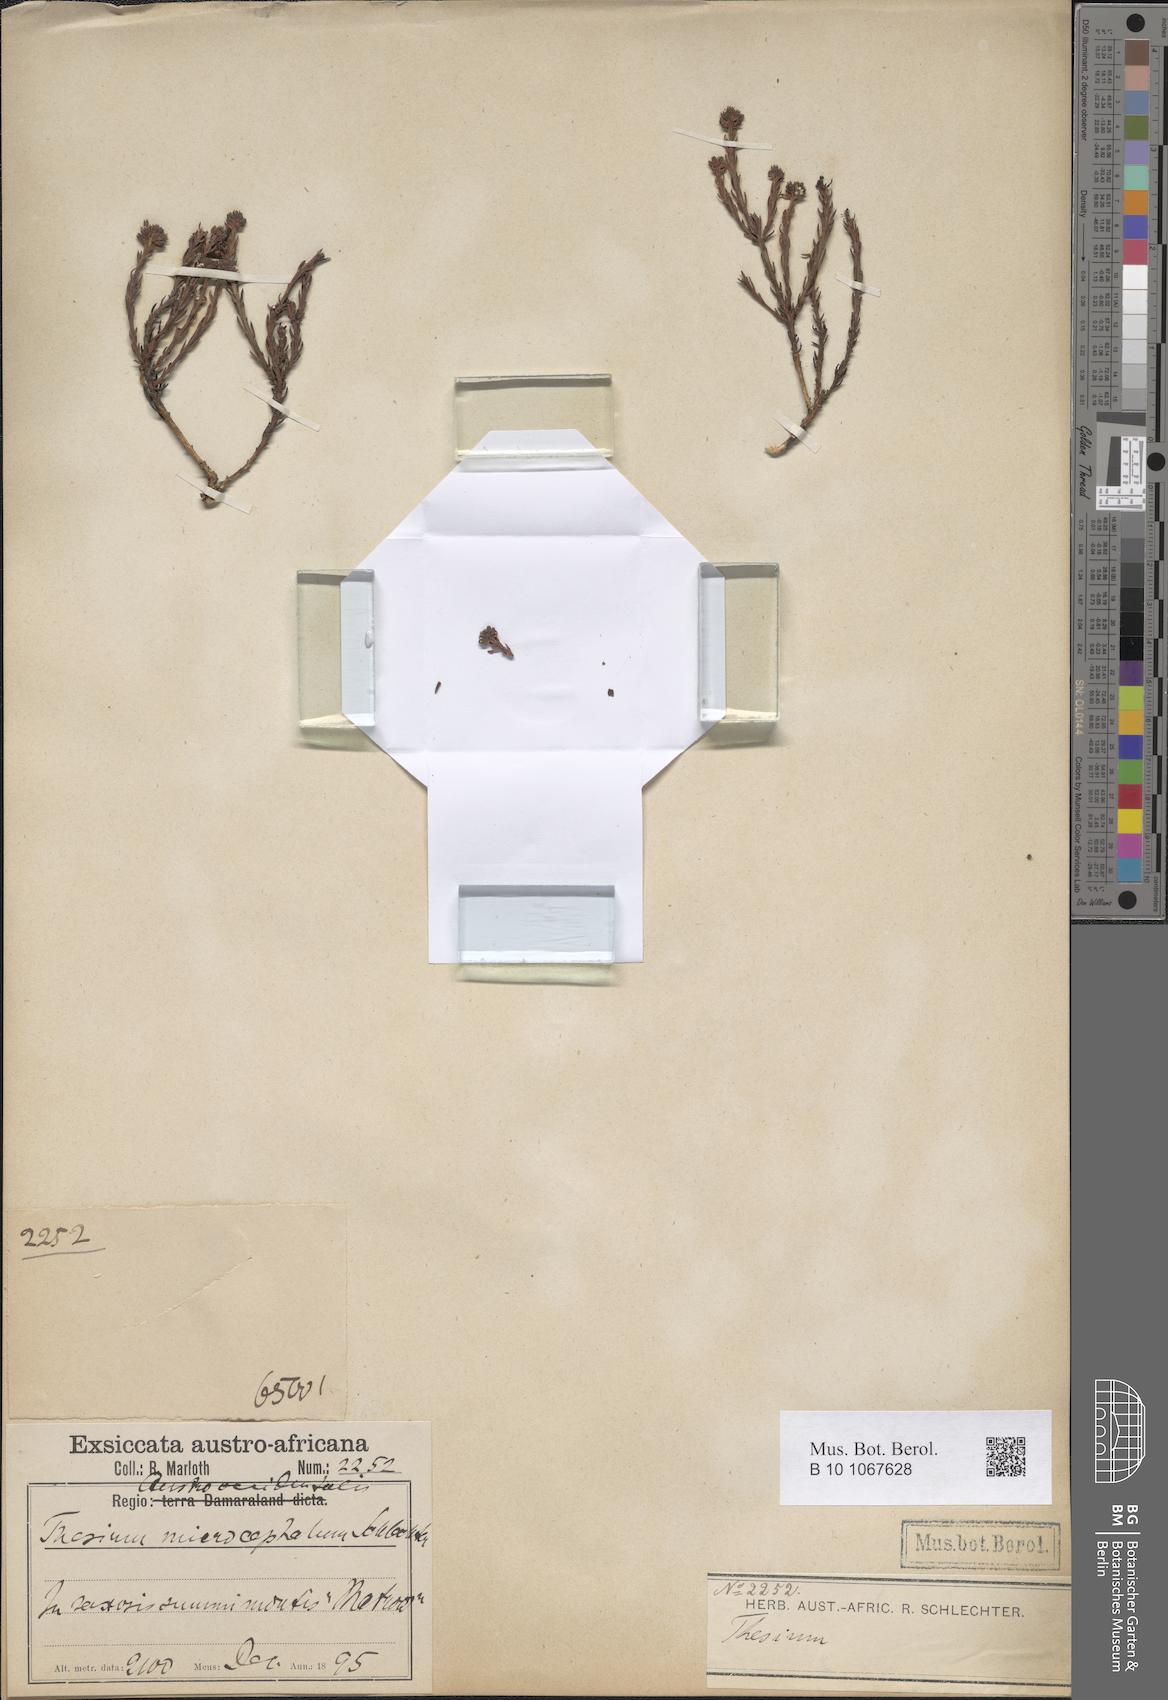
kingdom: Plantae
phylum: Tracheophyta
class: Magnoliopsida
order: Santalales
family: Thesiaceae
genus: Thesium
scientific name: Thesium microcephalum
